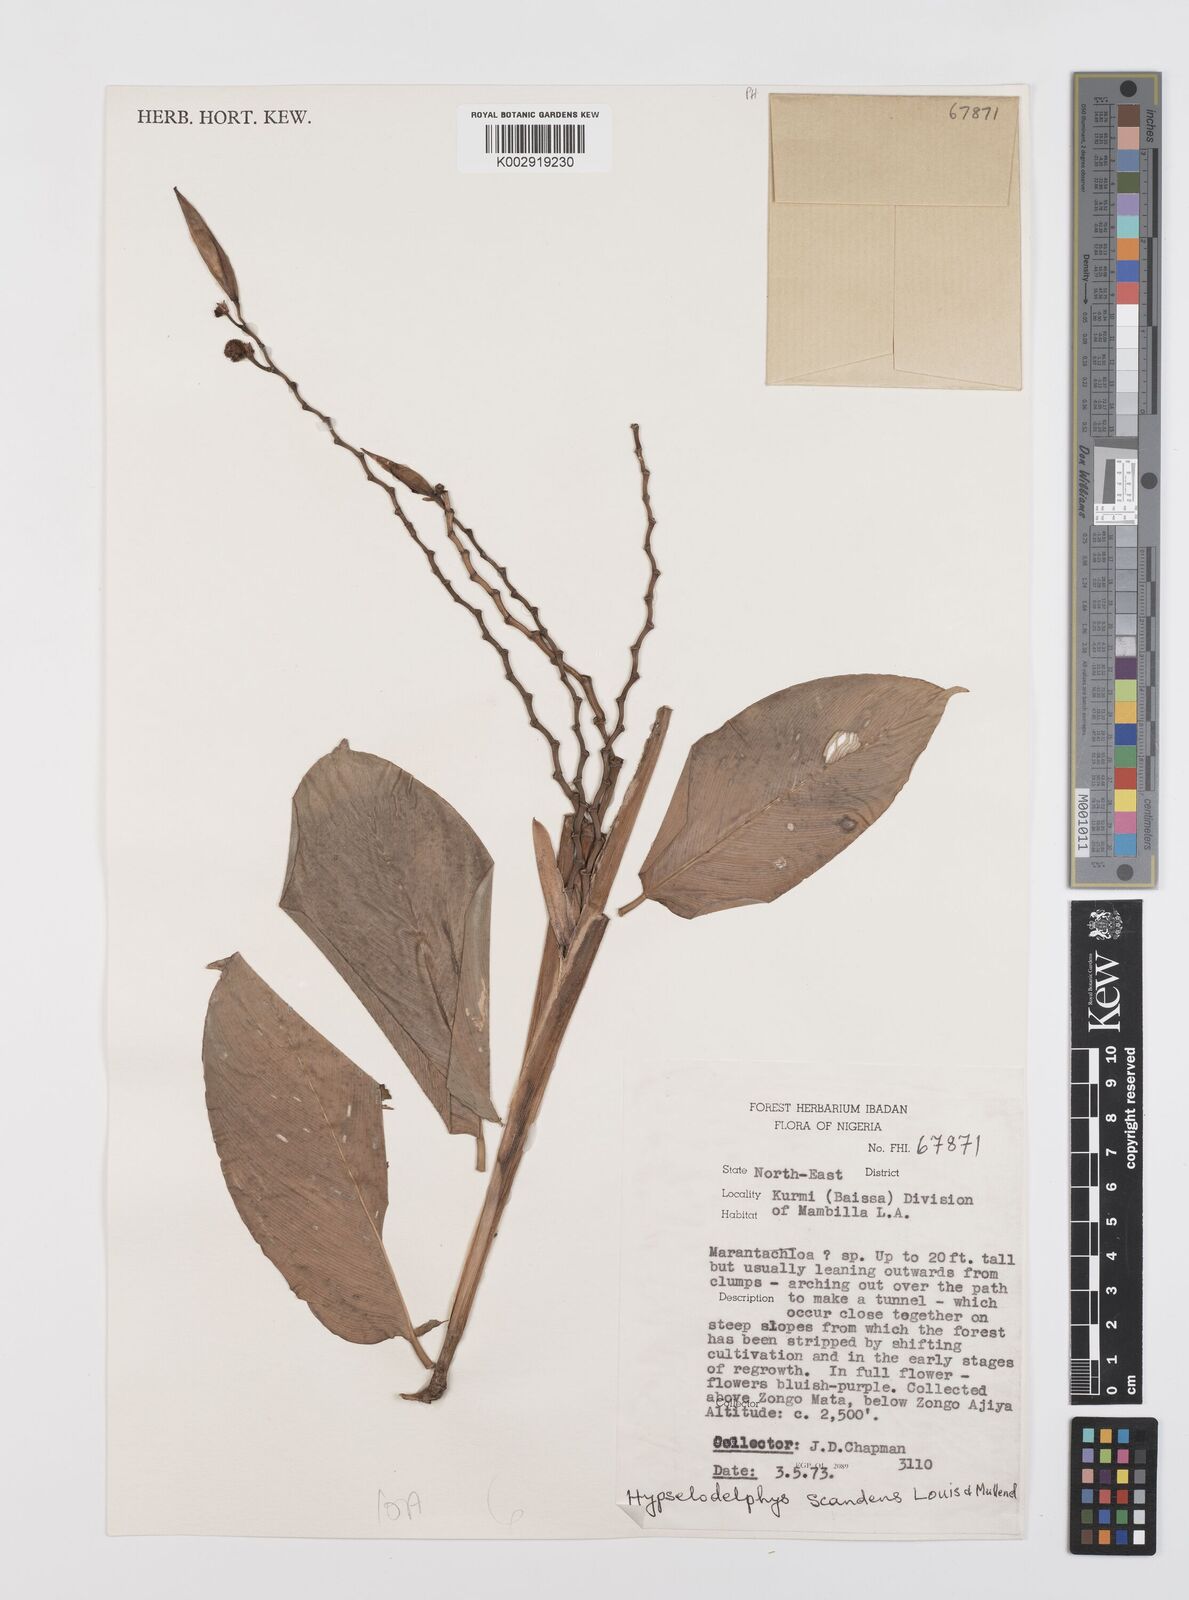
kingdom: Plantae
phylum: Tracheophyta
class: Liliopsida
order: Zingiberales
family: Marantaceae
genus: Hypselodelphys
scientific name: Hypselodelphys scandens
